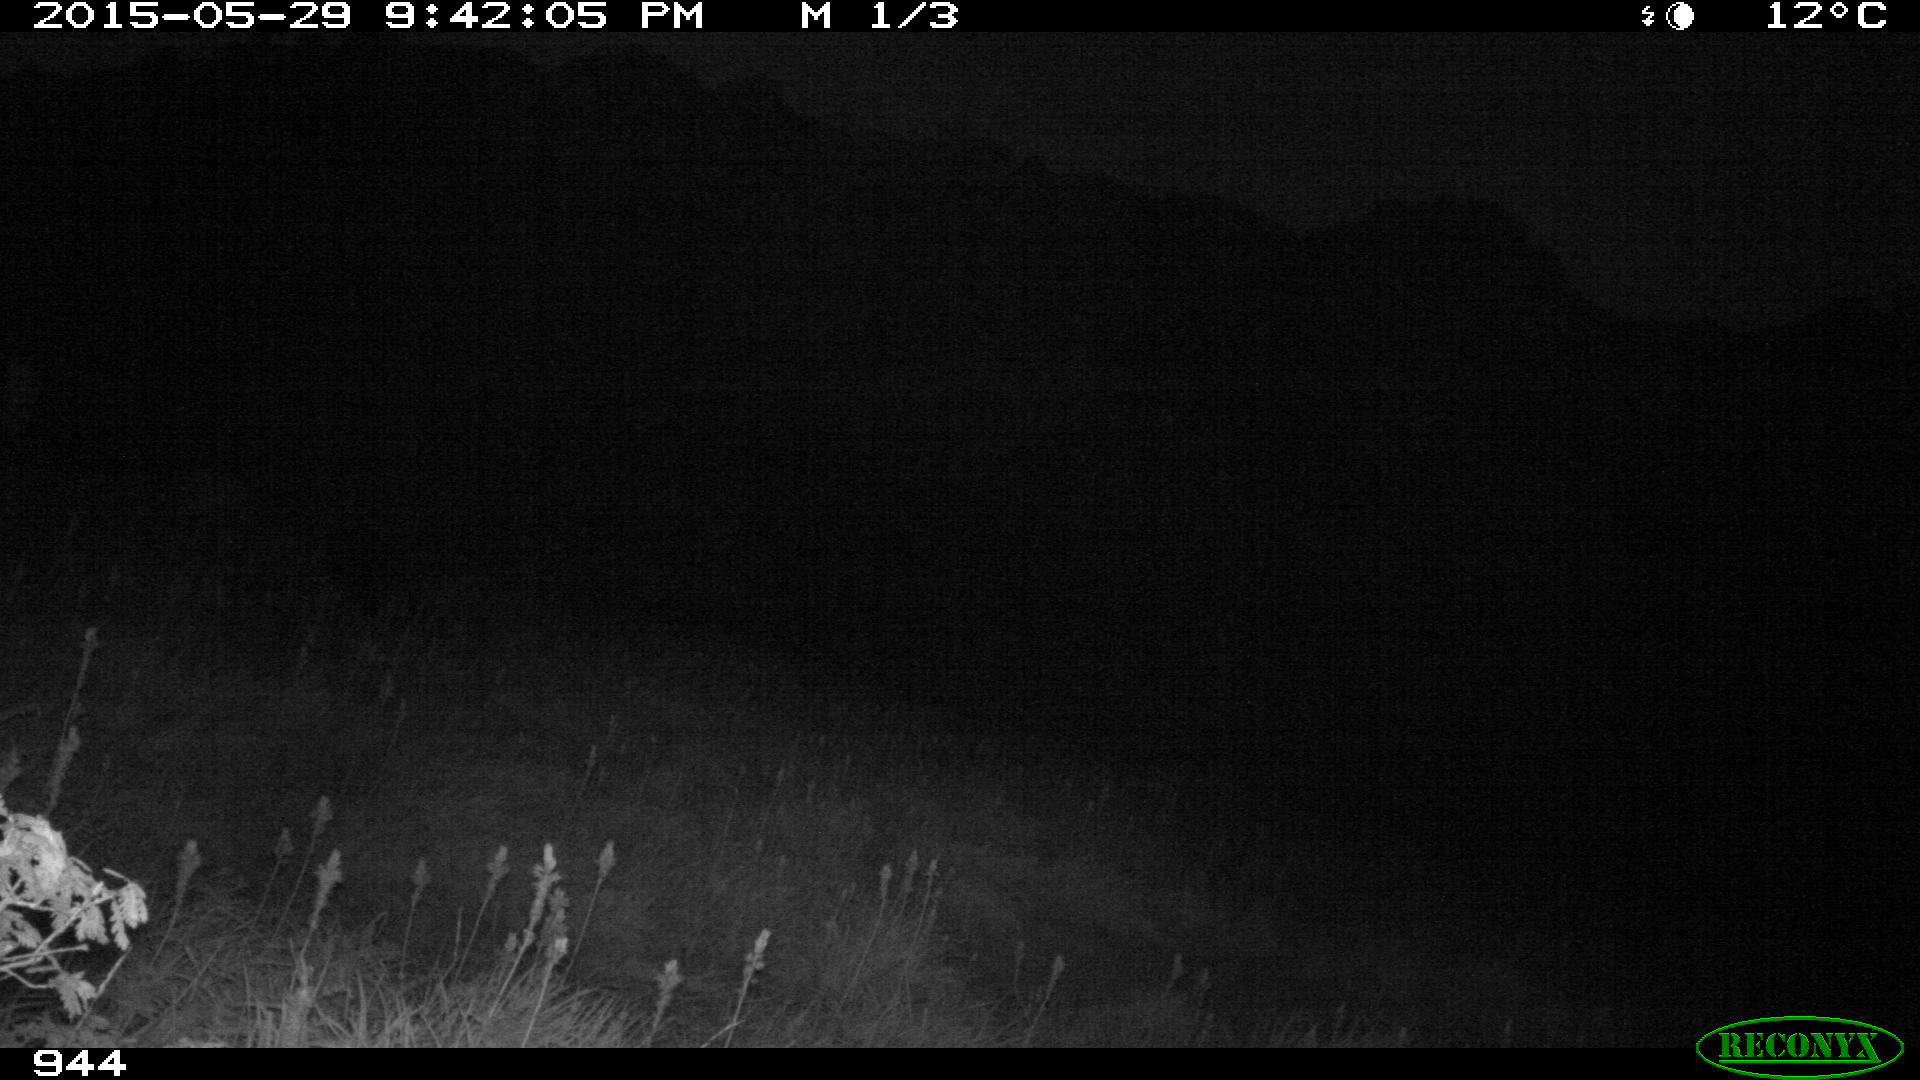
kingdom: Animalia
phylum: Chordata
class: Mammalia
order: Artiodactyla
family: Bovidae
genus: Bos
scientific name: Bos taurus
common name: Domesticated cattle
